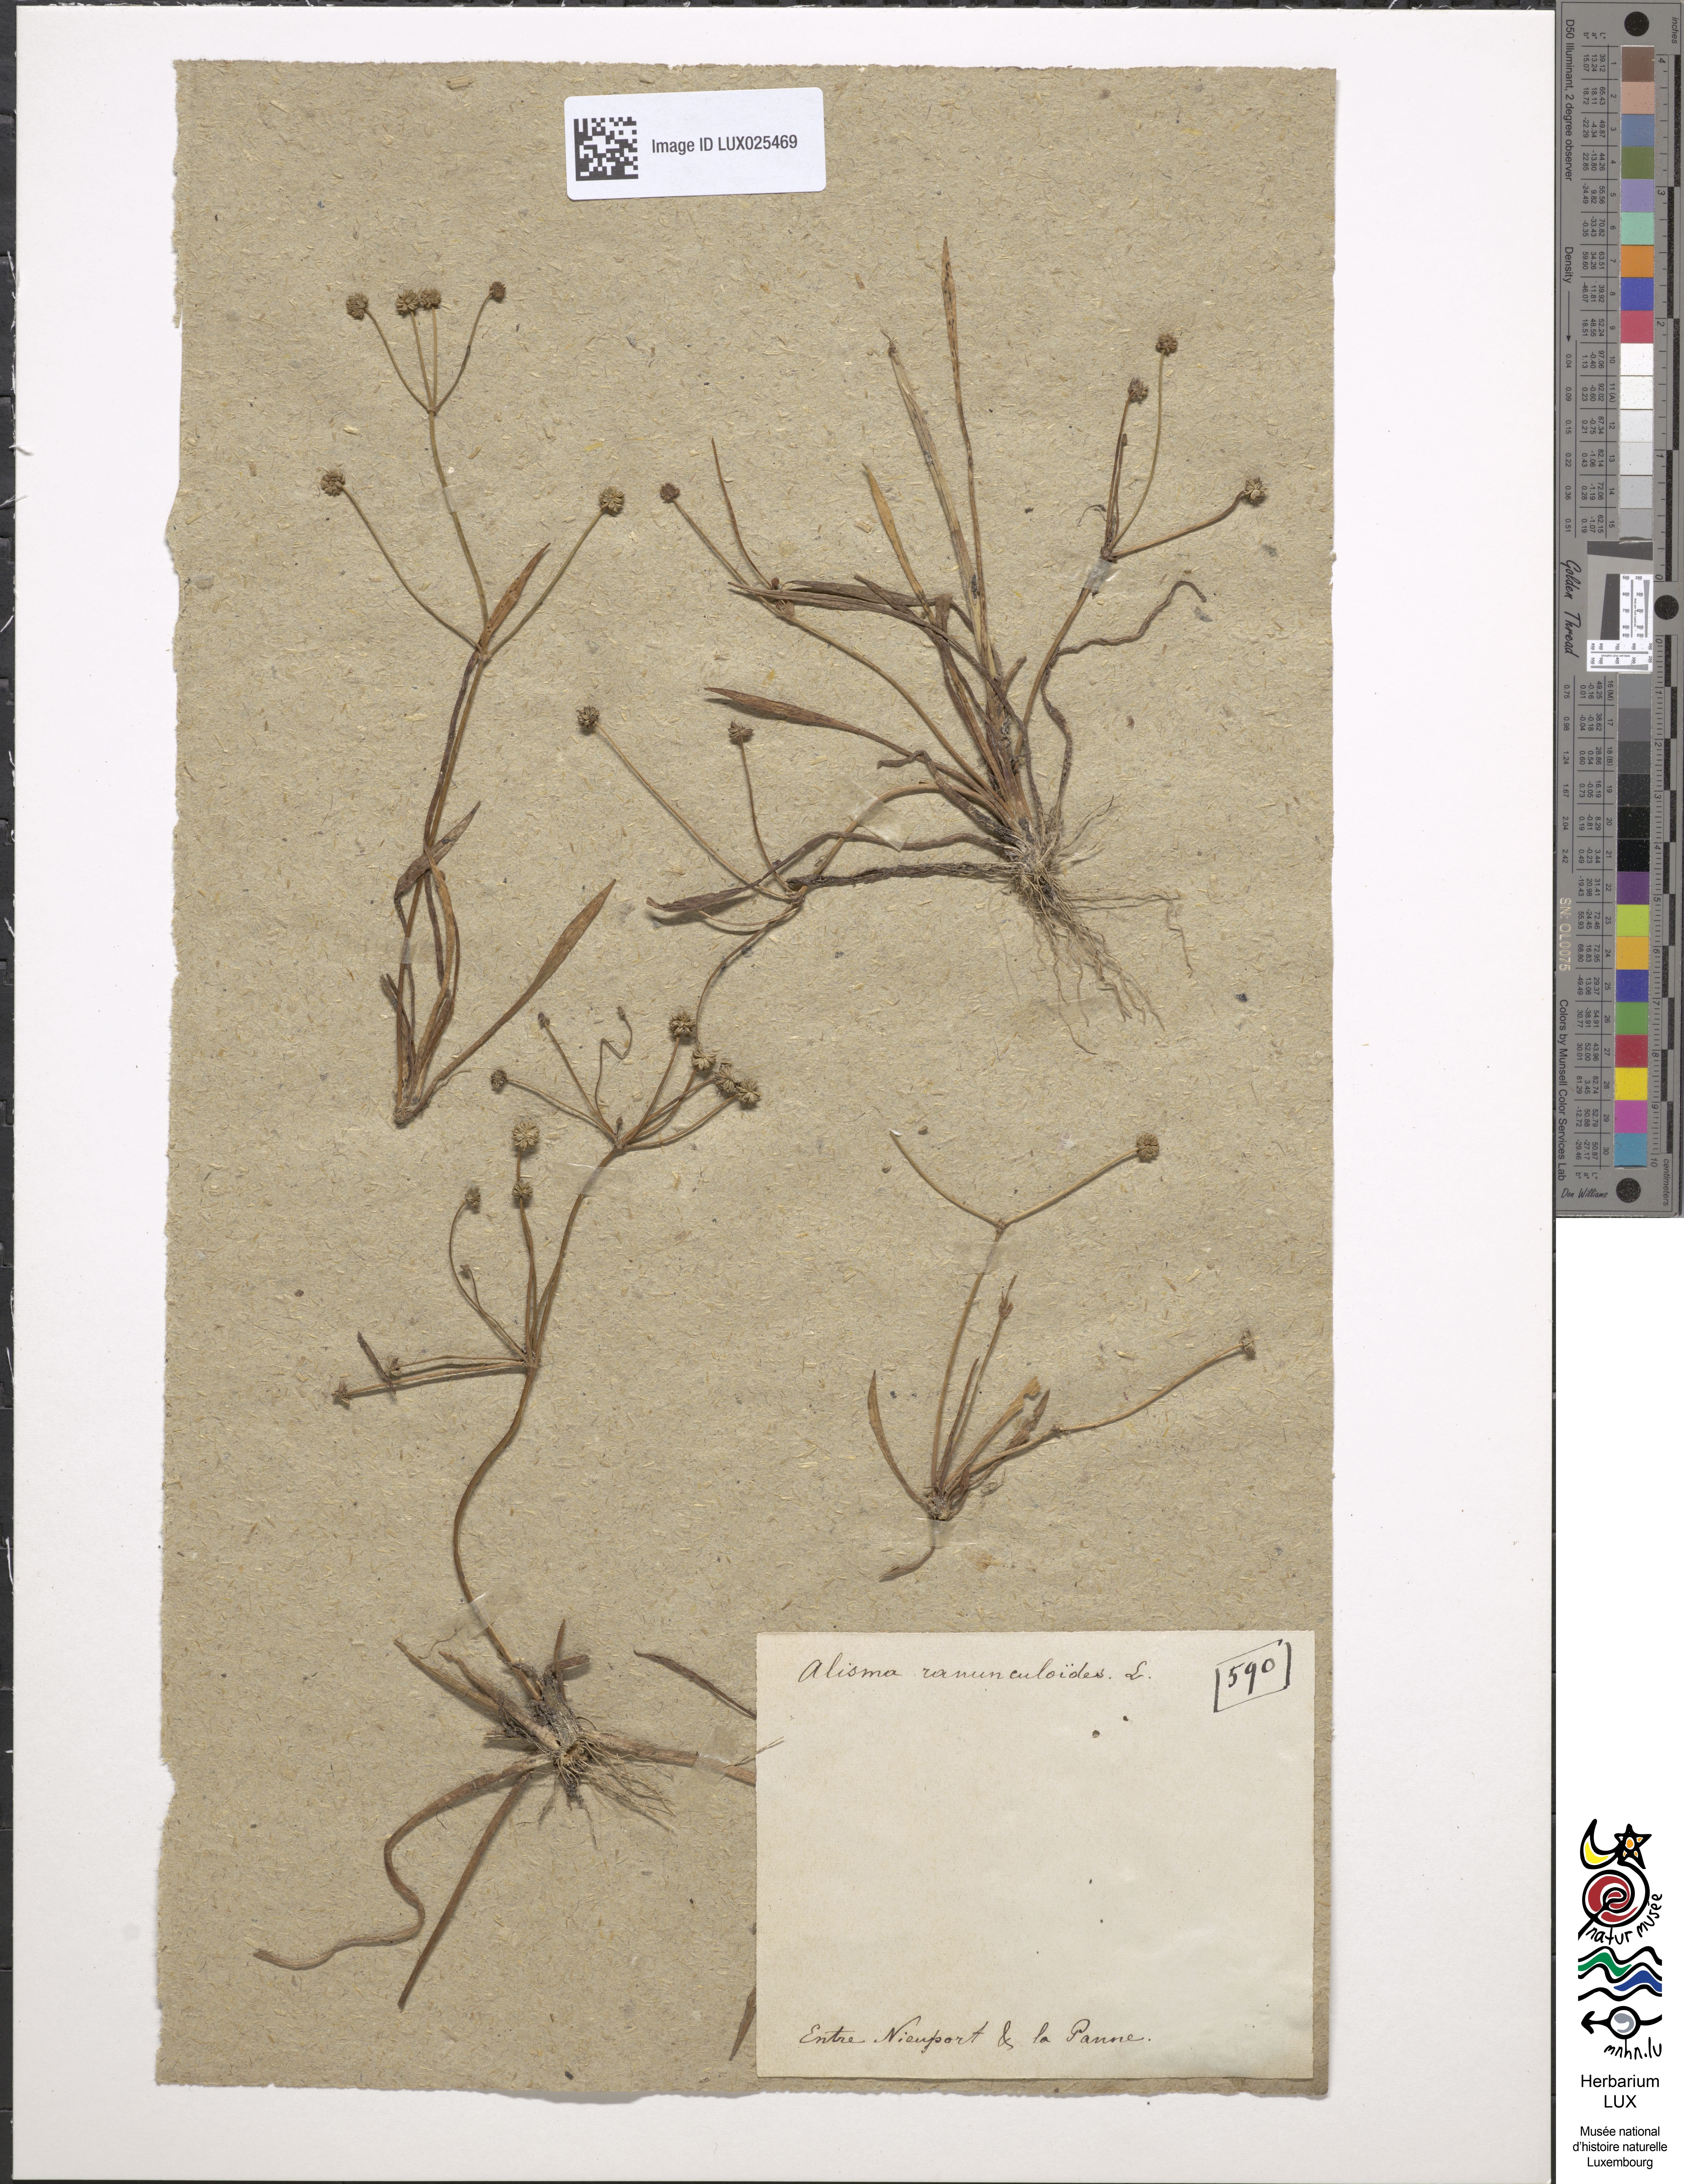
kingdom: Plantae
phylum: Tracheophyta
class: Liliopsida
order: Alismatales
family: Alismataceae
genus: Baldellia
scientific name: Baldellia ranunculoides
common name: Lesser water-plantain
